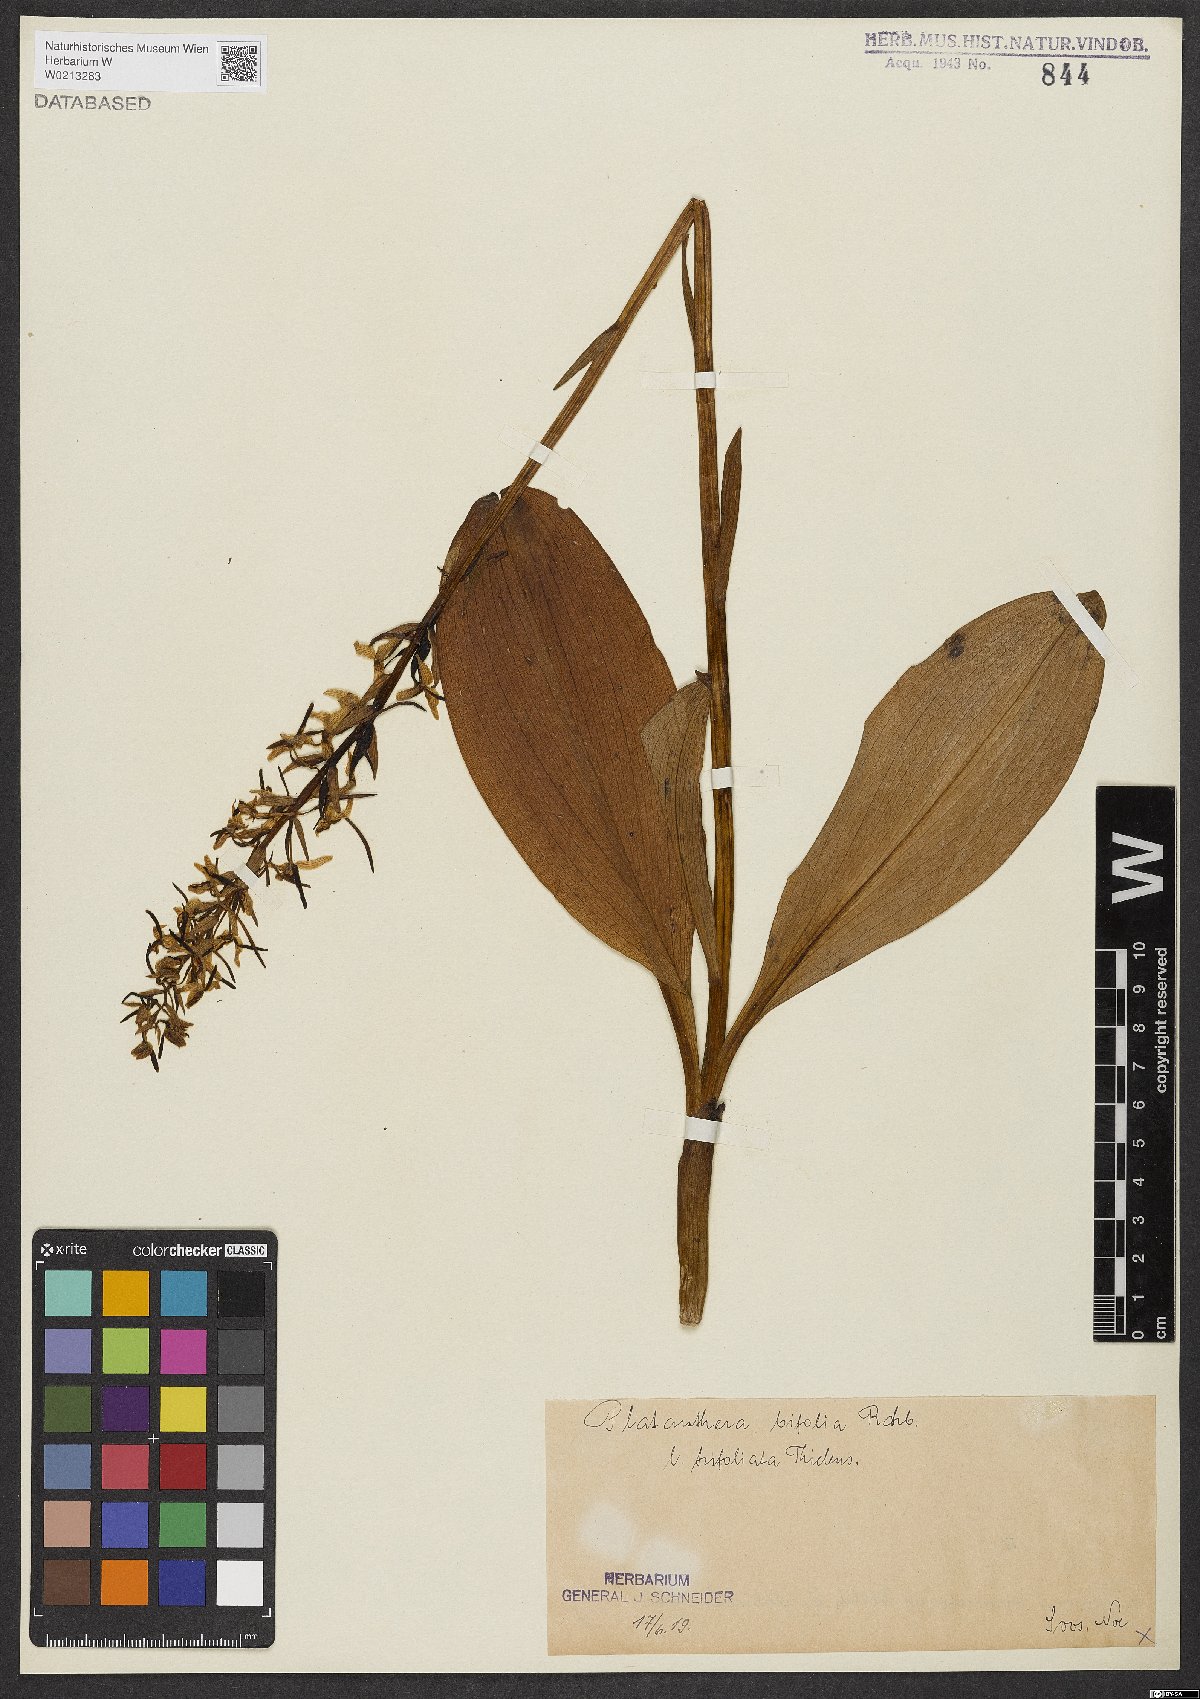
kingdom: Plantae
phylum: Tracheophyta
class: Liliopsida
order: Asparagales
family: Orchidaceae
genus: Platanthera
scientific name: Platanthera bifolia
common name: Lesser butterfly-orchid
